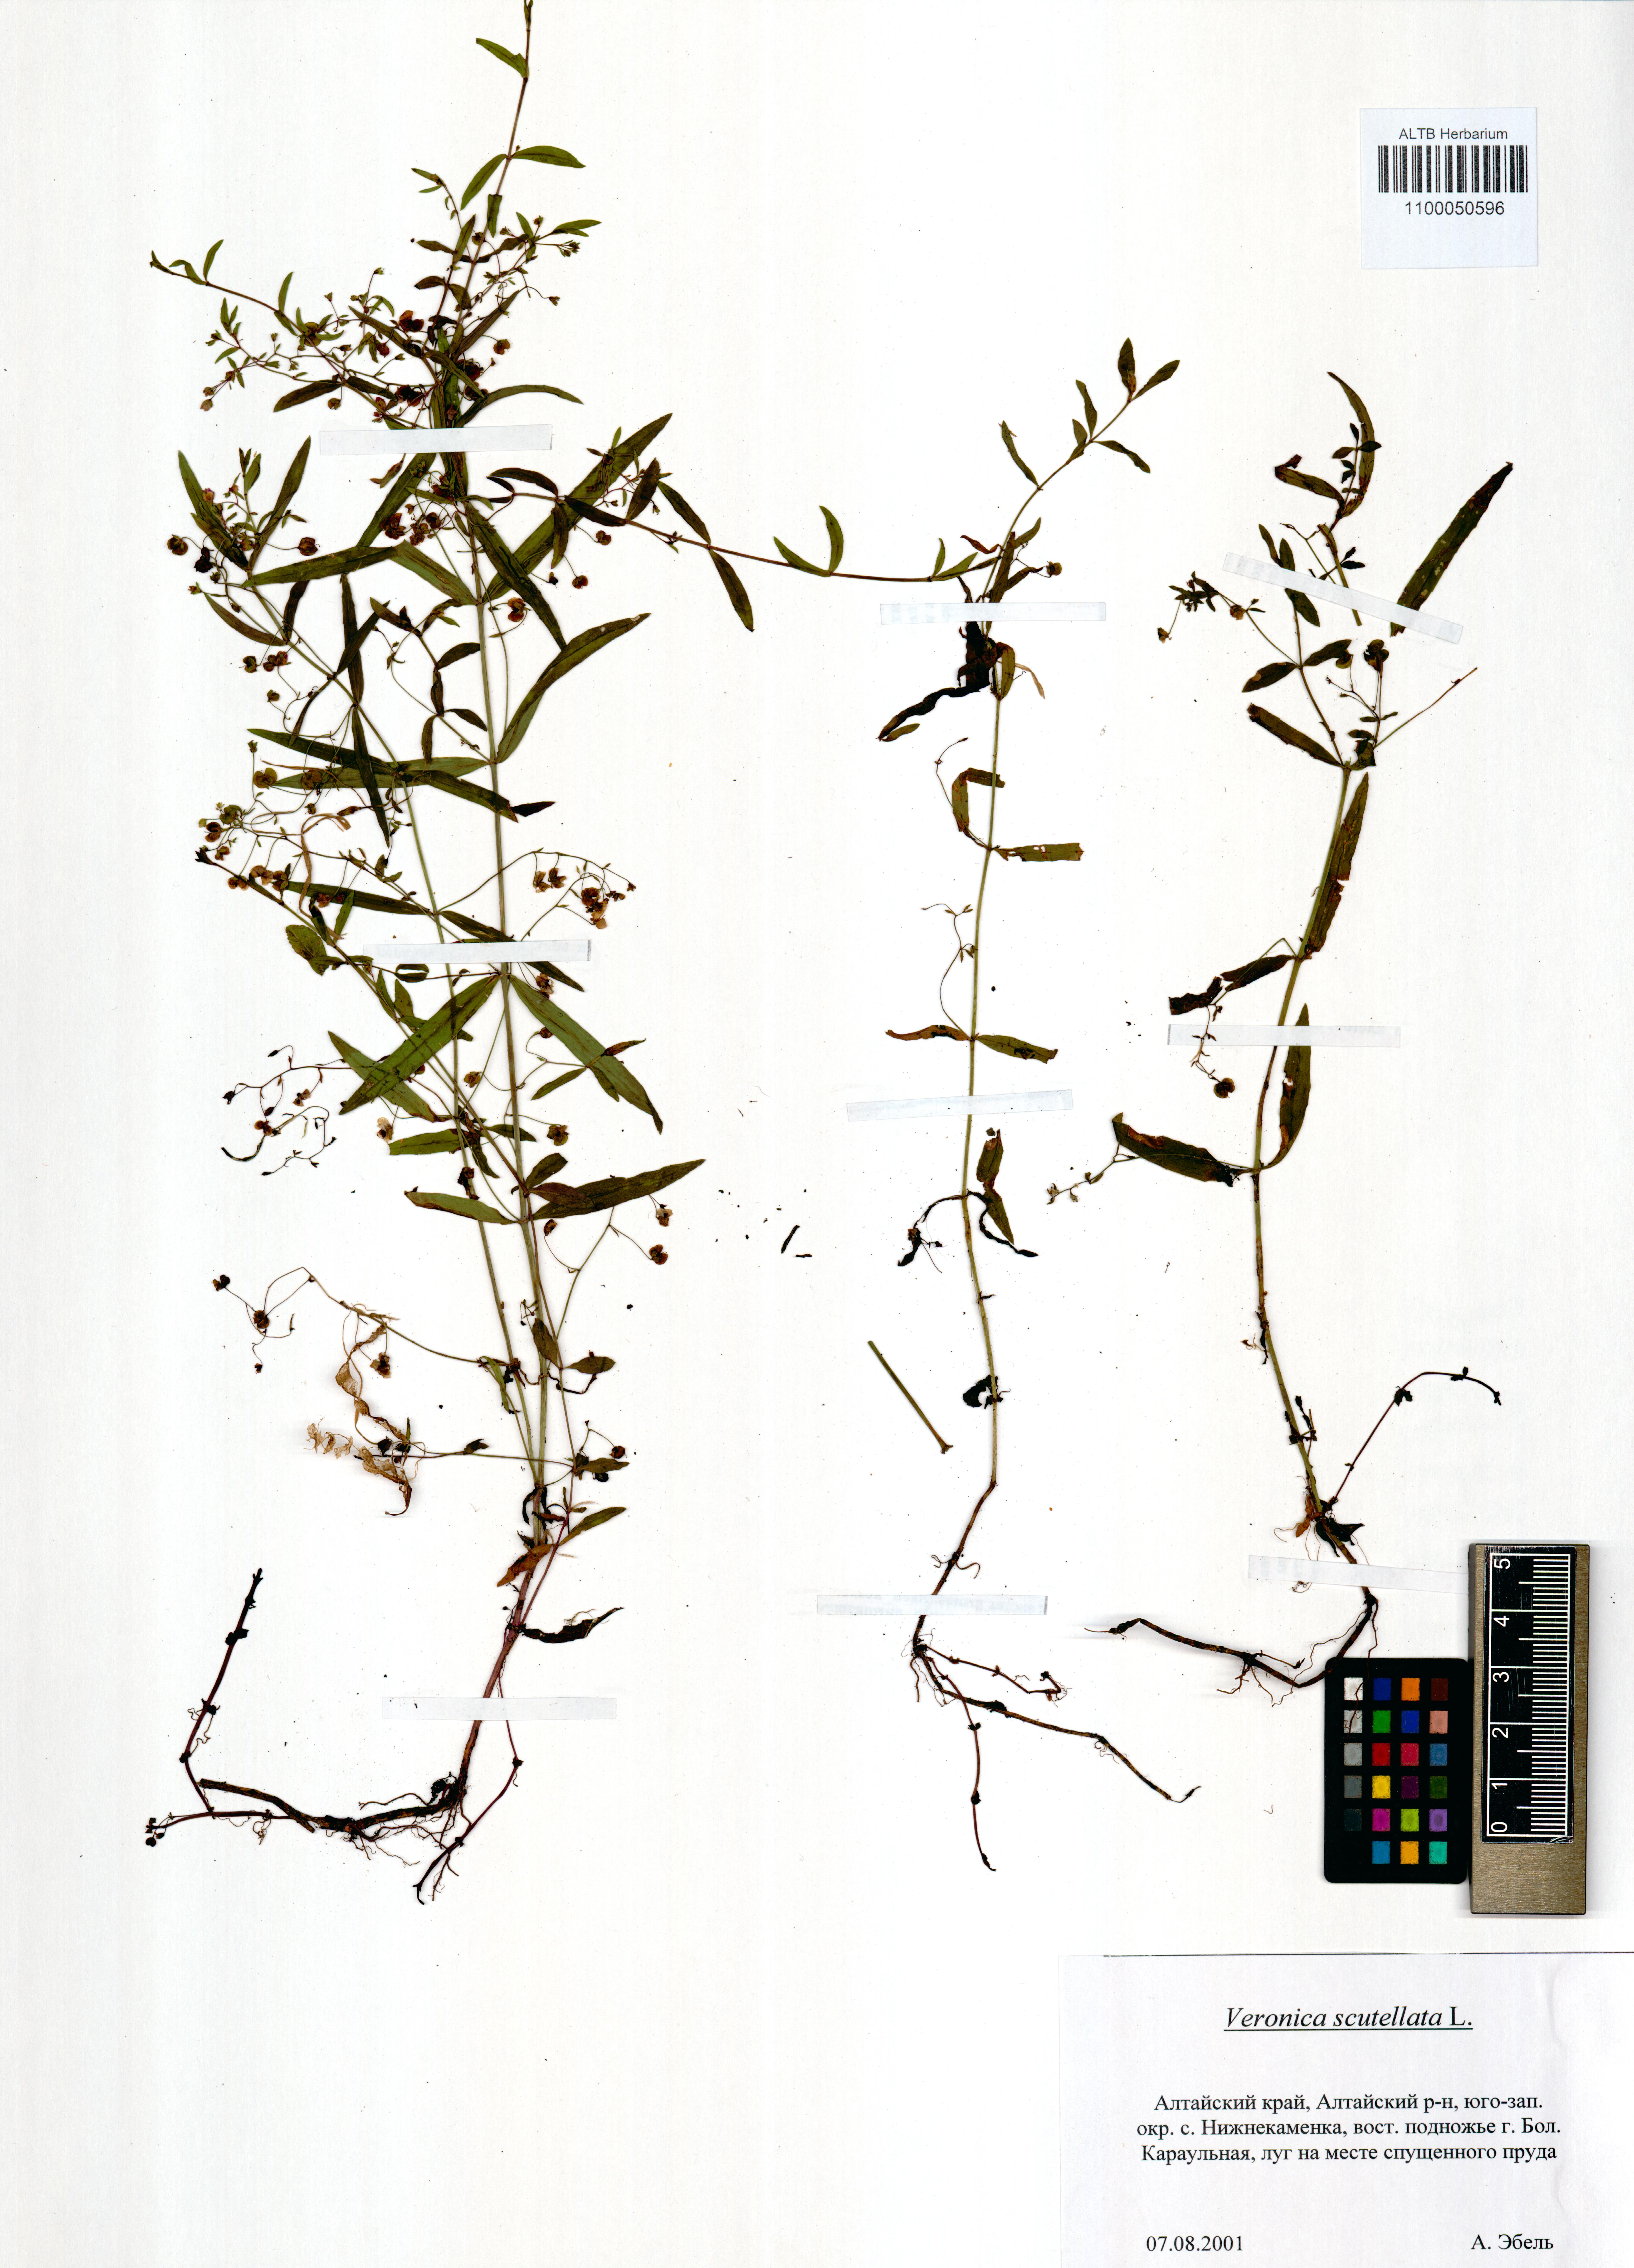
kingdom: Plantae
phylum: Tracheophyta
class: Magnoliopsida
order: Lamiales
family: Plantaginaceae
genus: Veronica
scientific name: Veronica scutellata
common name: Marsh speedwell
